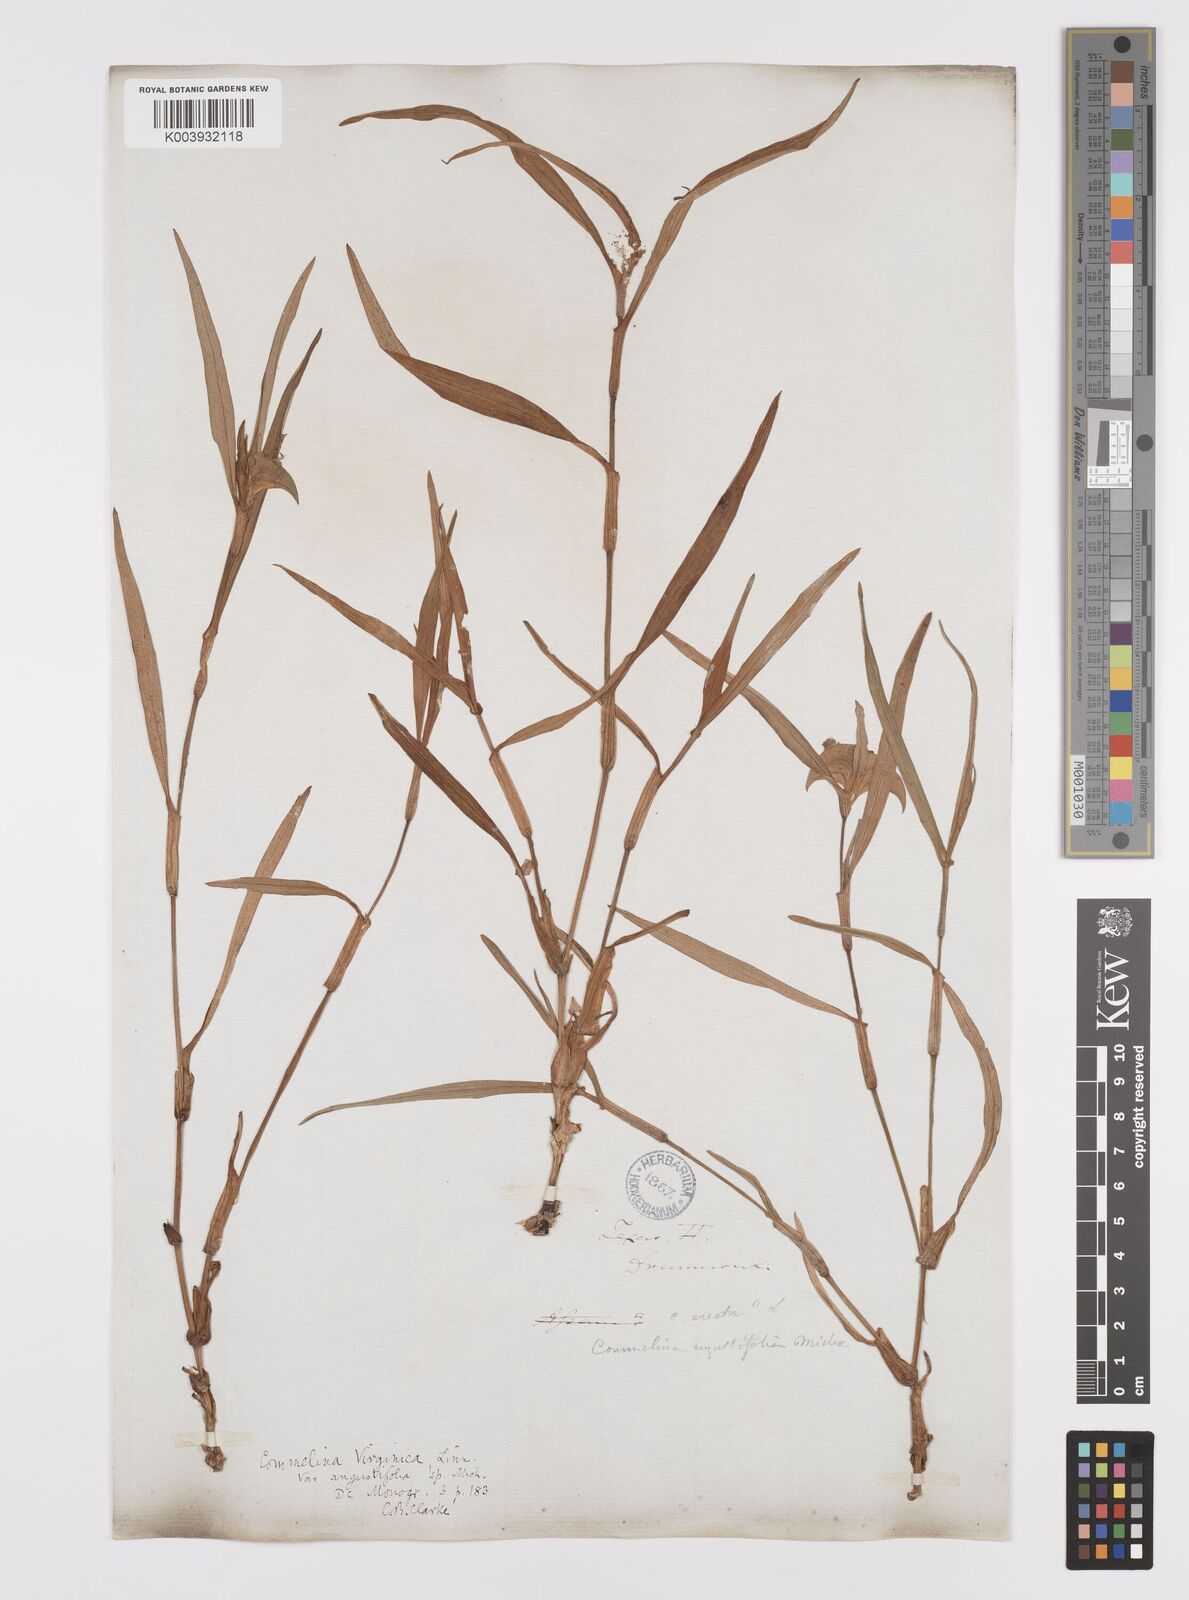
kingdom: Plantae
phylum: Tracheophyta
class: Liliopsida
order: Commelinales
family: Commelinaceae
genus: Commelina
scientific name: Commelina erecta
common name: Blousel blommetjie
